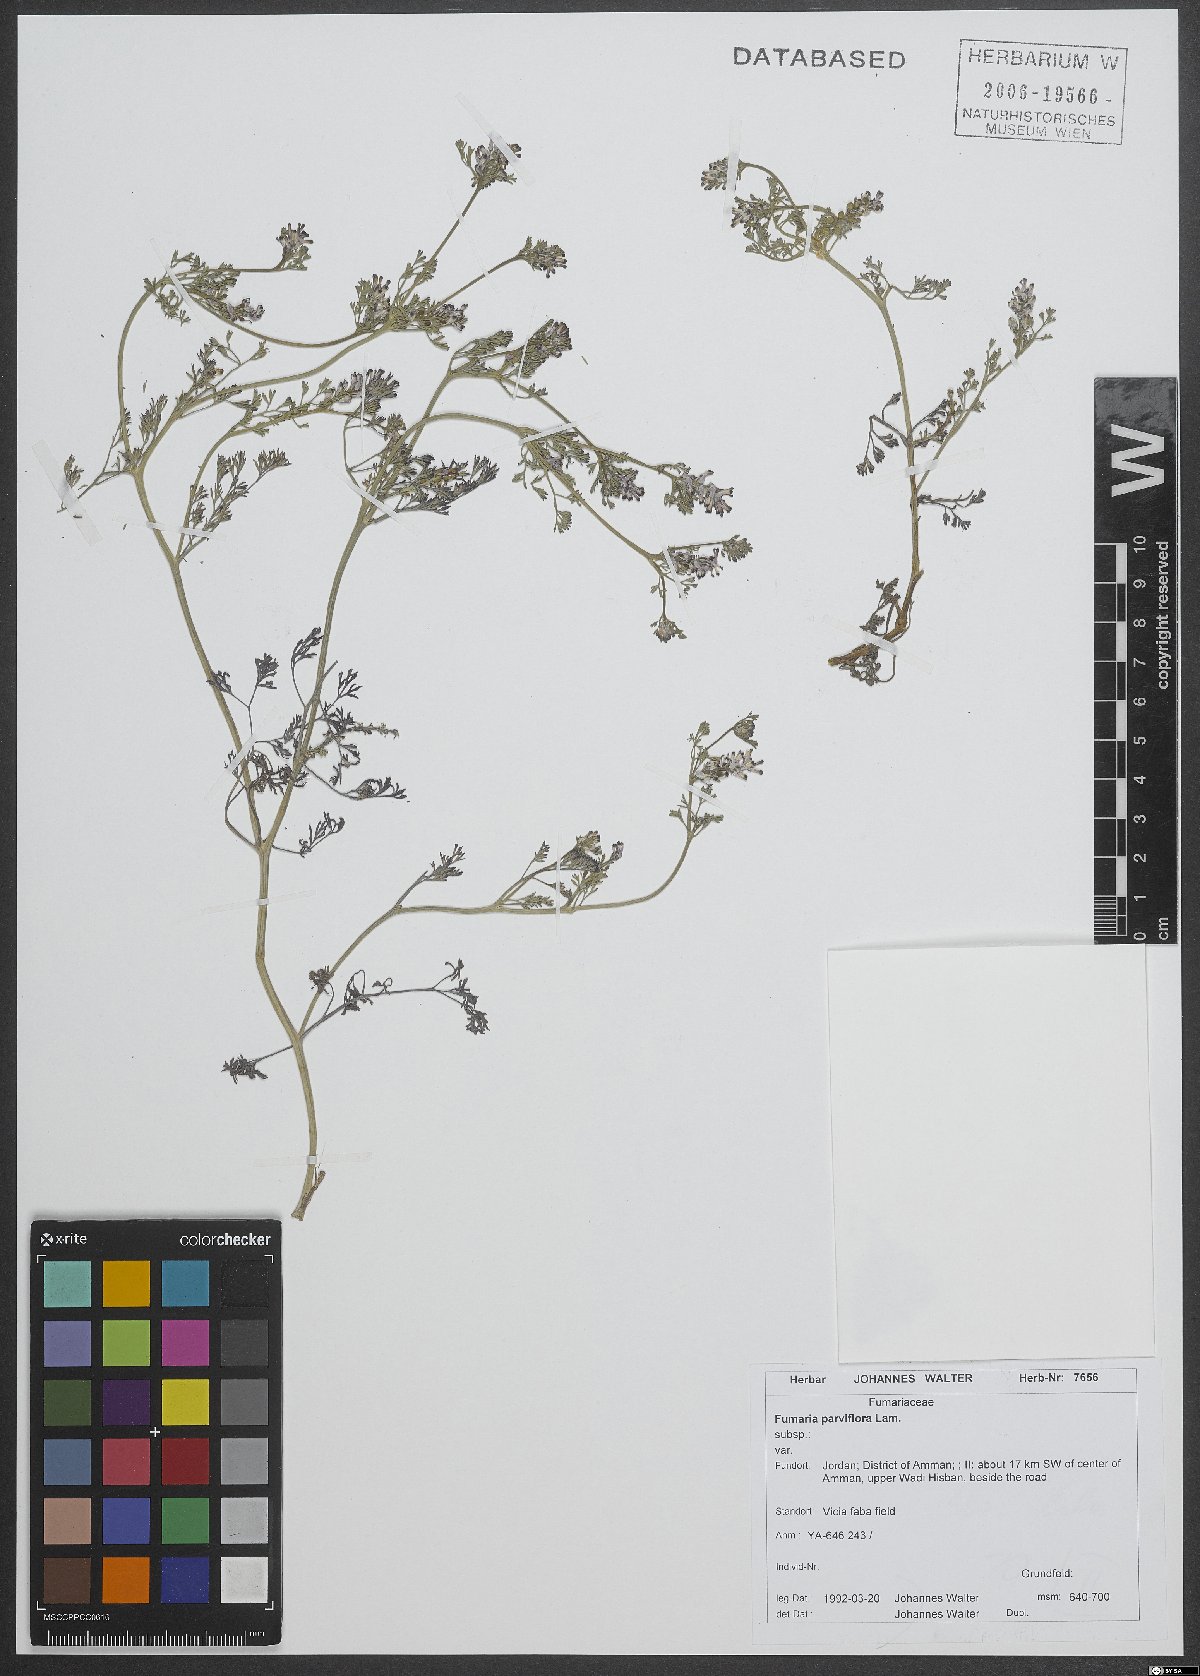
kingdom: Plantae
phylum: Tracheophyta
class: Magnoliopsida
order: Ranunculales
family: Papaveraceae
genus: Fumaria
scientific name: Fumaria parviflora
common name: Fine-leaved fumitory
